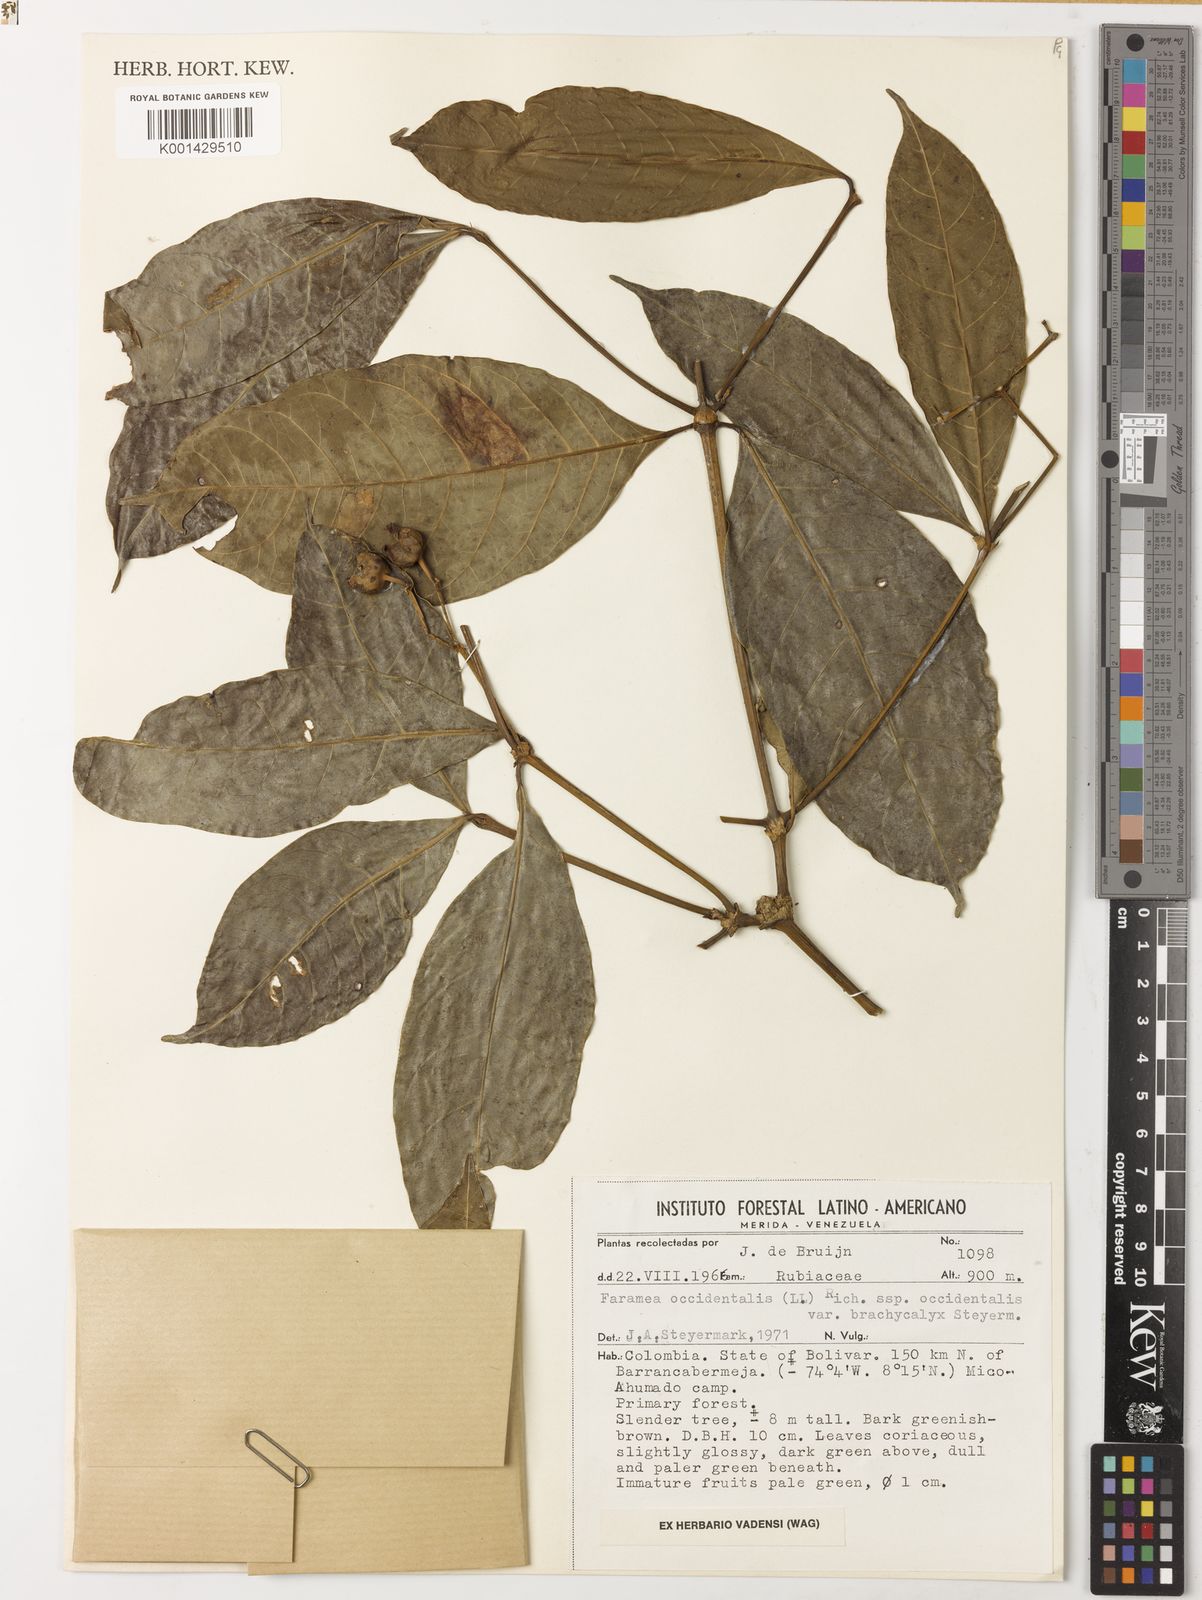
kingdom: Plantae
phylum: Tracheophyta
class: Magnoliopsida
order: Gentianales
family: Rubiaceae
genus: Faramea
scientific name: Faramea occidentalis
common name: False coffee
